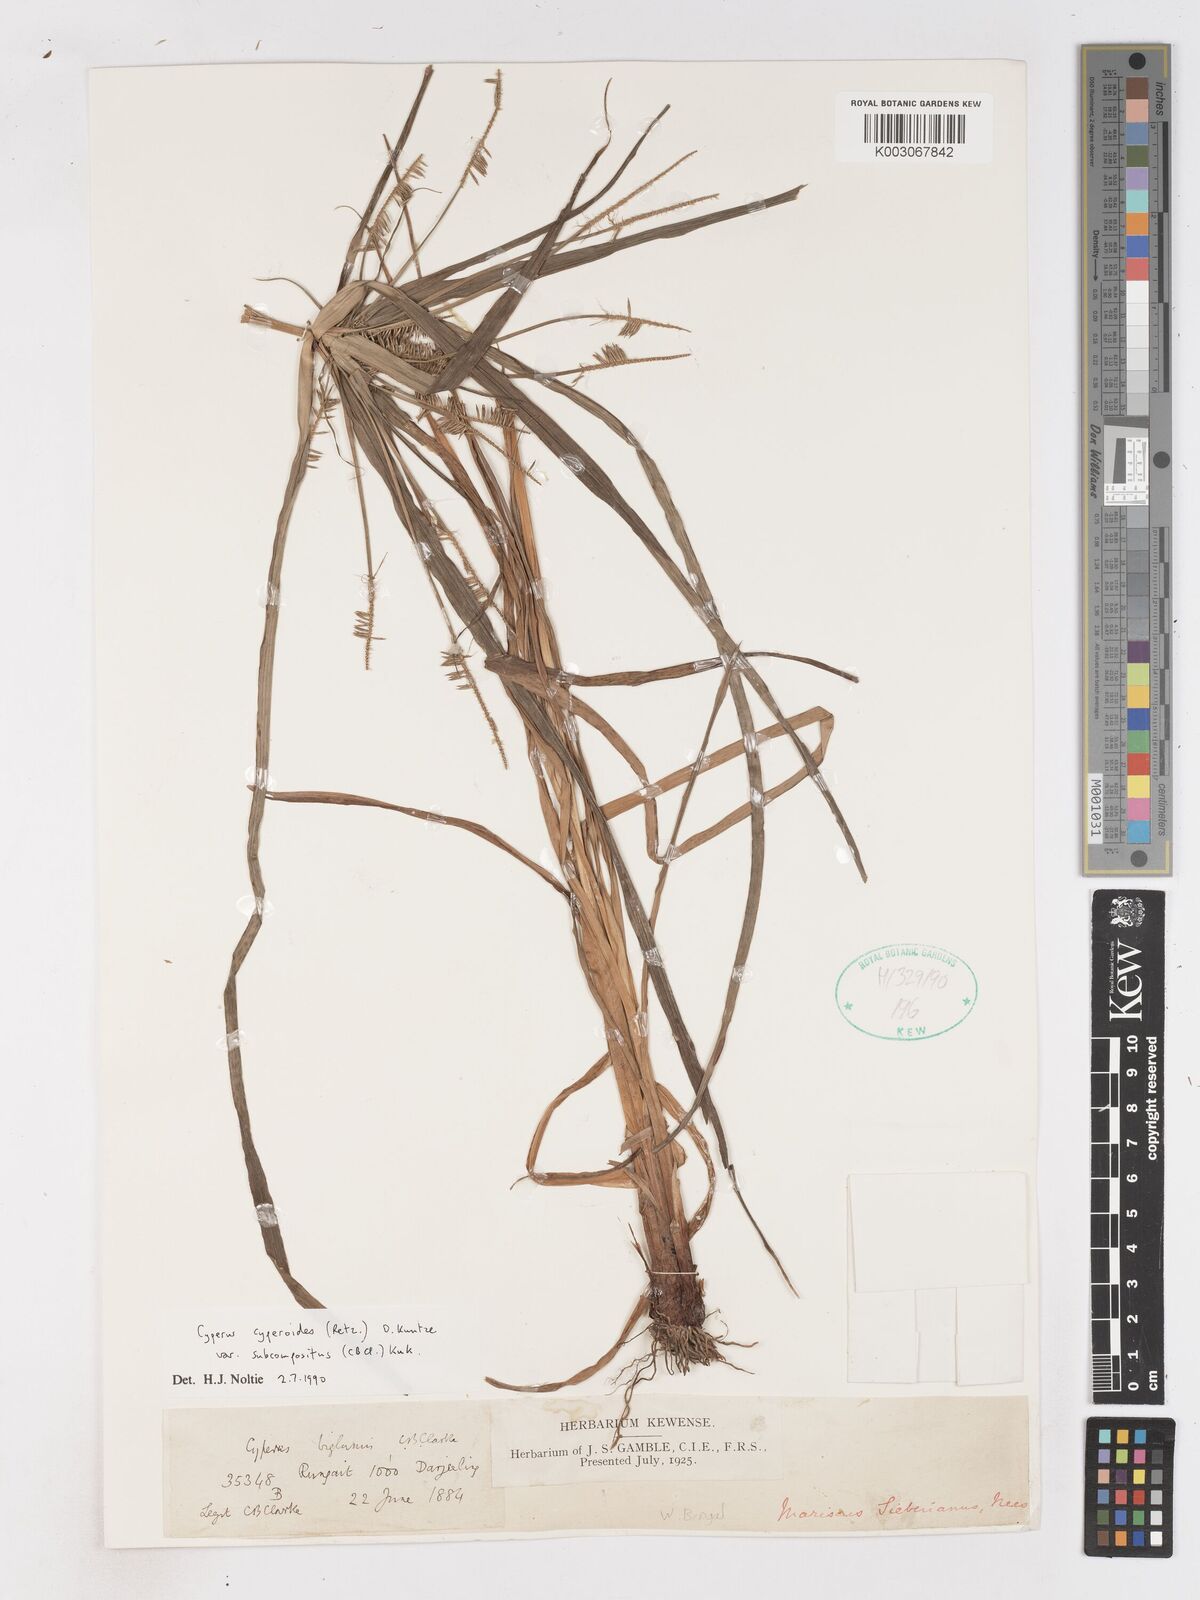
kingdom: Plantae
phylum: Tracheophyta
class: Liliopsida
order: Poales
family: Cyperaceae
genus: Cyperus
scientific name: Cyperus cyperoides
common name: Pacific island flat sedge
